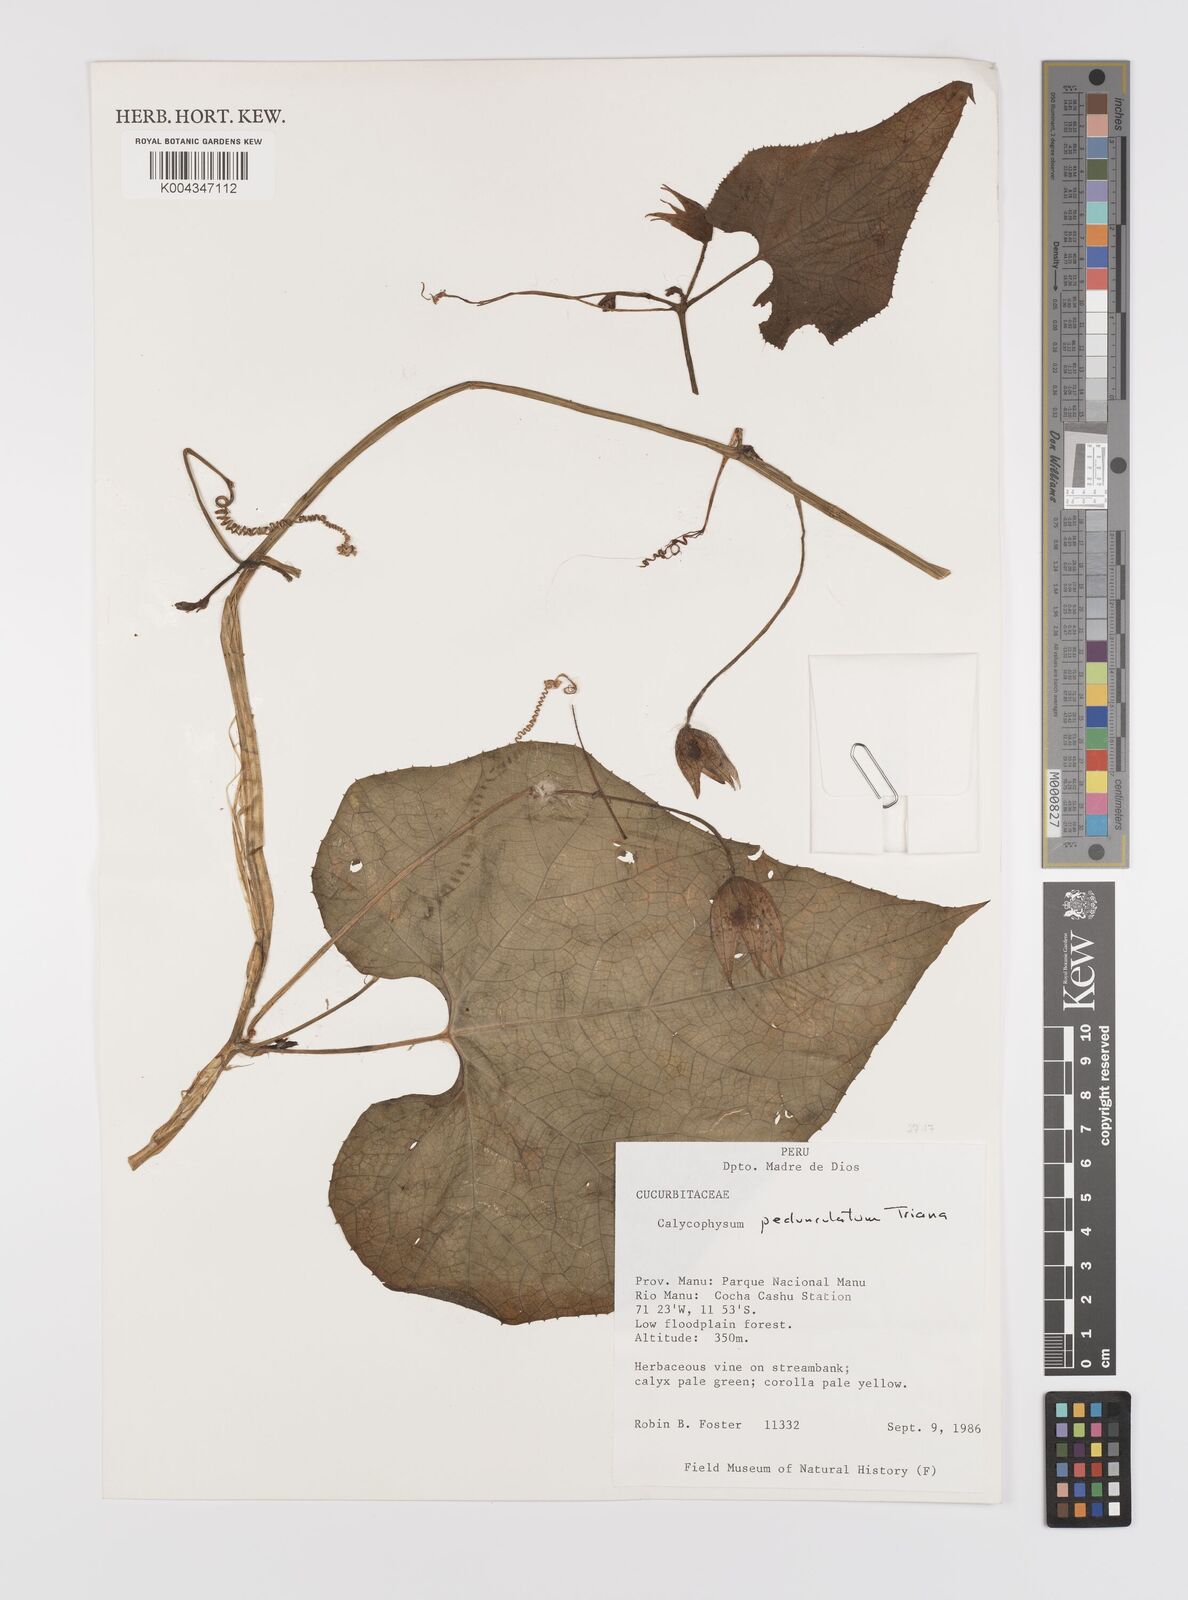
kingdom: Plantae
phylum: Tracheophyta
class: Magnoliopsida
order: Cucurbitales
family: Cucurbitaceae
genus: Calycophysum
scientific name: Calycophysum pedunculatum
